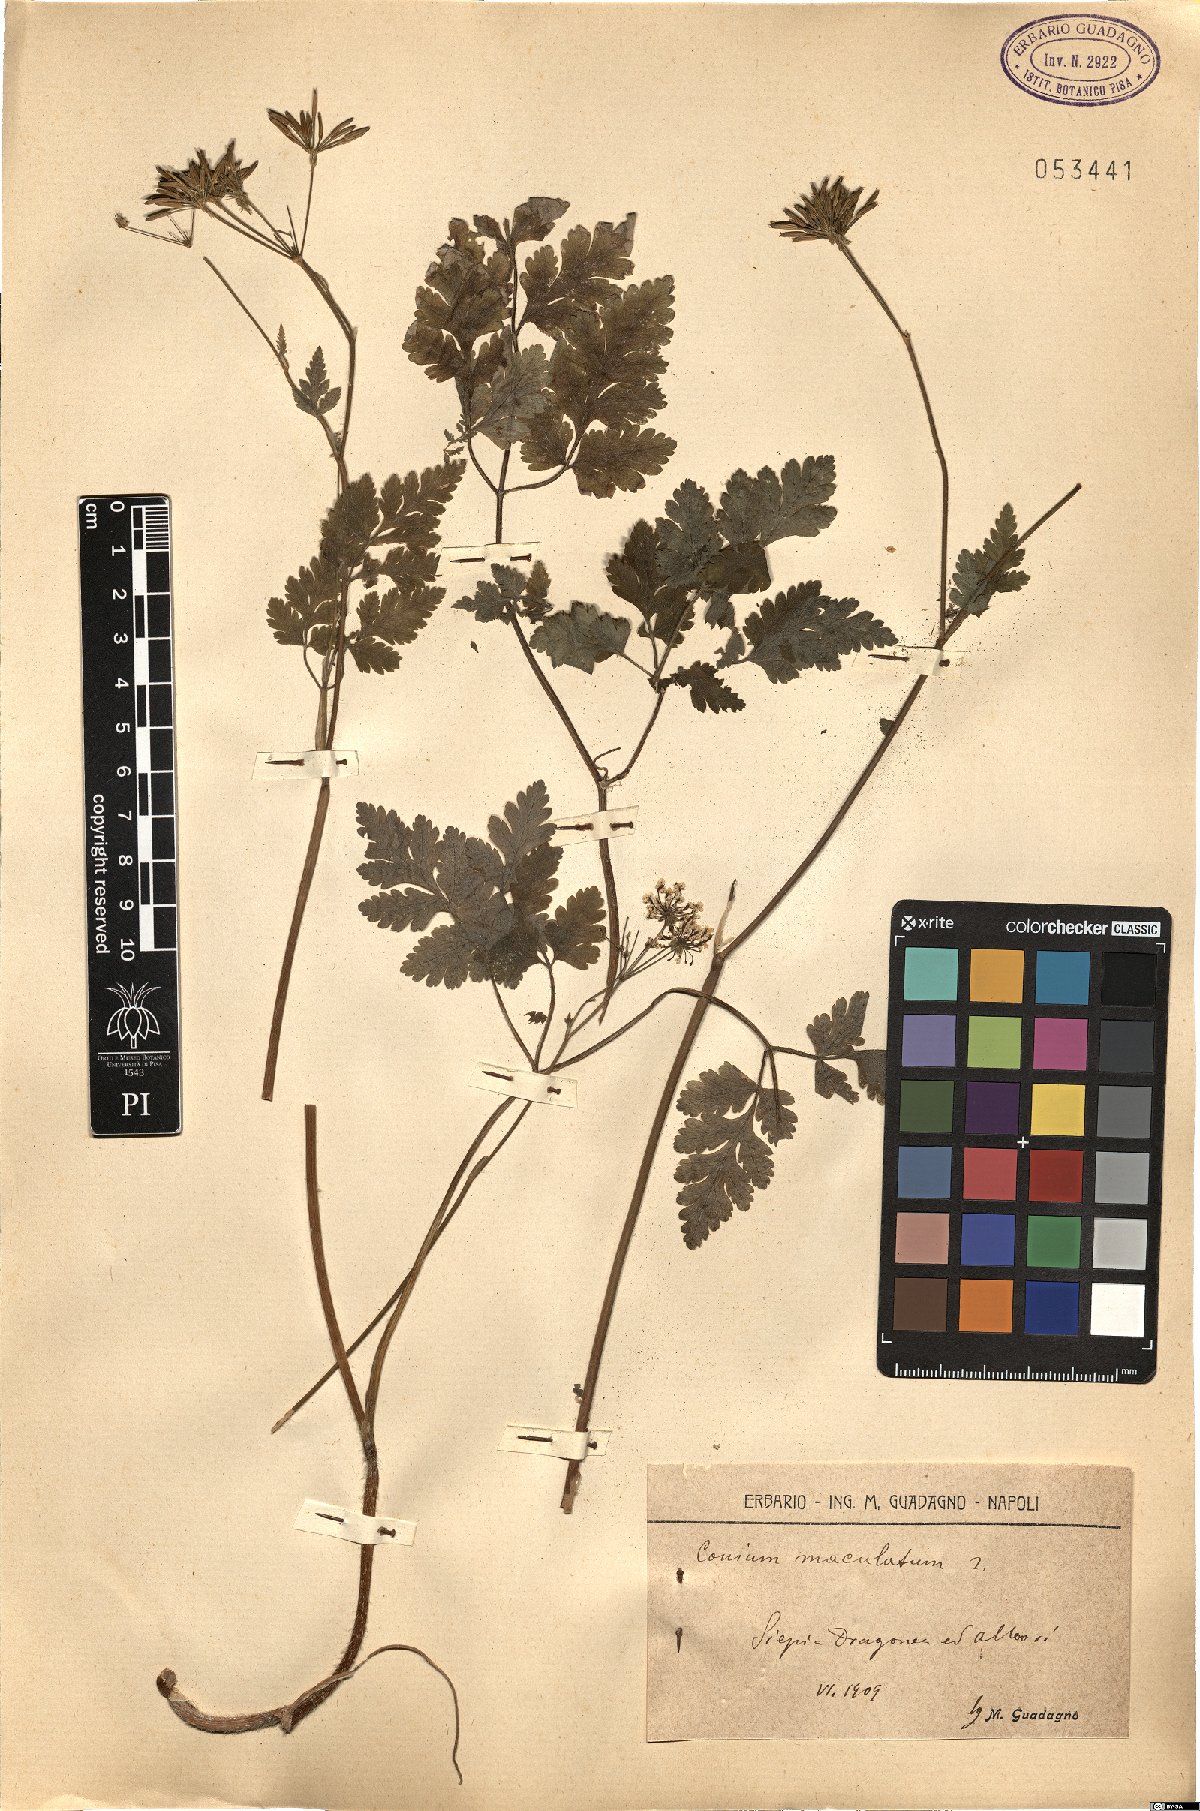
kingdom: Plantae
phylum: Tracheophyta
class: Magnoliopsida
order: Apiales
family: Apiaceae
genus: Conium
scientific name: Conium maculatum
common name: Hemlock
